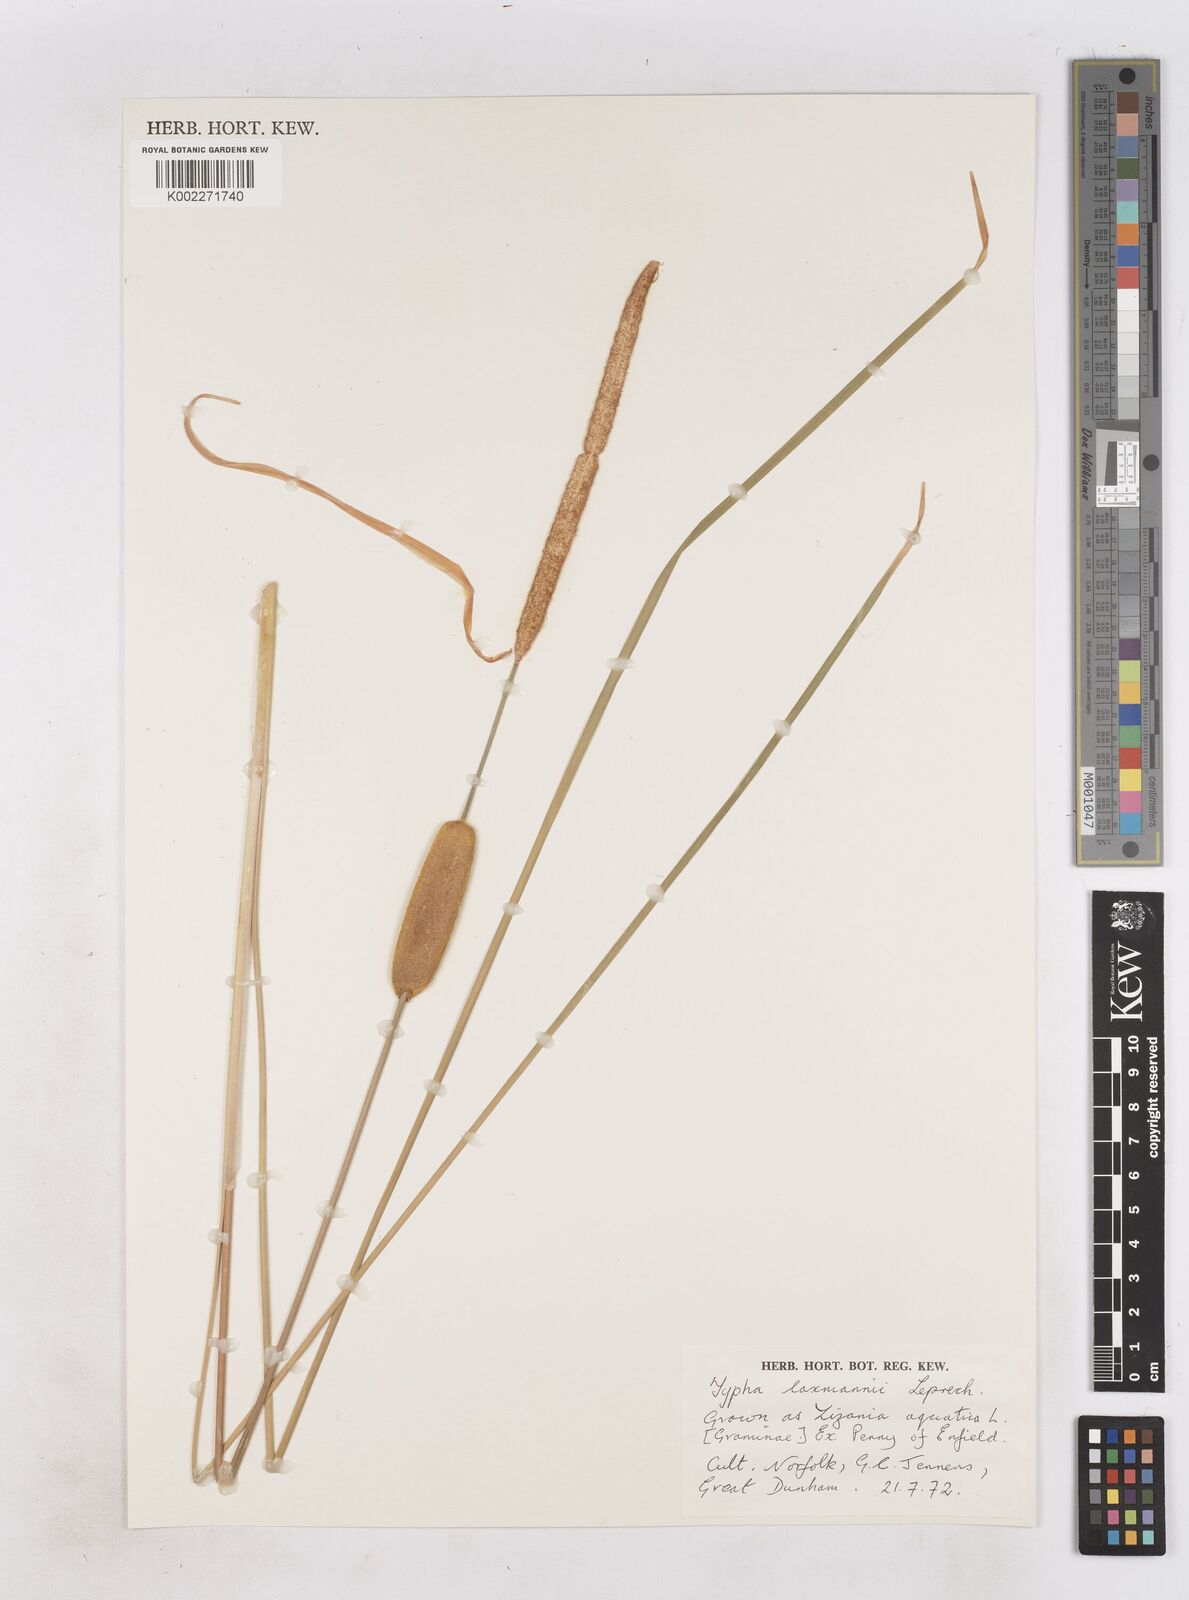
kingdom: Plantae
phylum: Tracheophyta
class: Liliopsida
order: Poales
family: Typhaceae
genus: Typha
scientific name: Typha laxmannii
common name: Laxman’s bulrush
